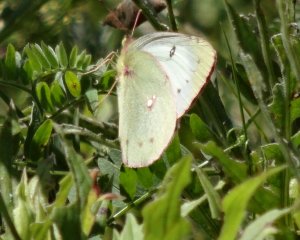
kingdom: Animalia
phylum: Arthropoda
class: Insecta
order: Lepidoptera
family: Pieridae
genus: Colias
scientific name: Colias philodice
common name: Clouded Sulphur
